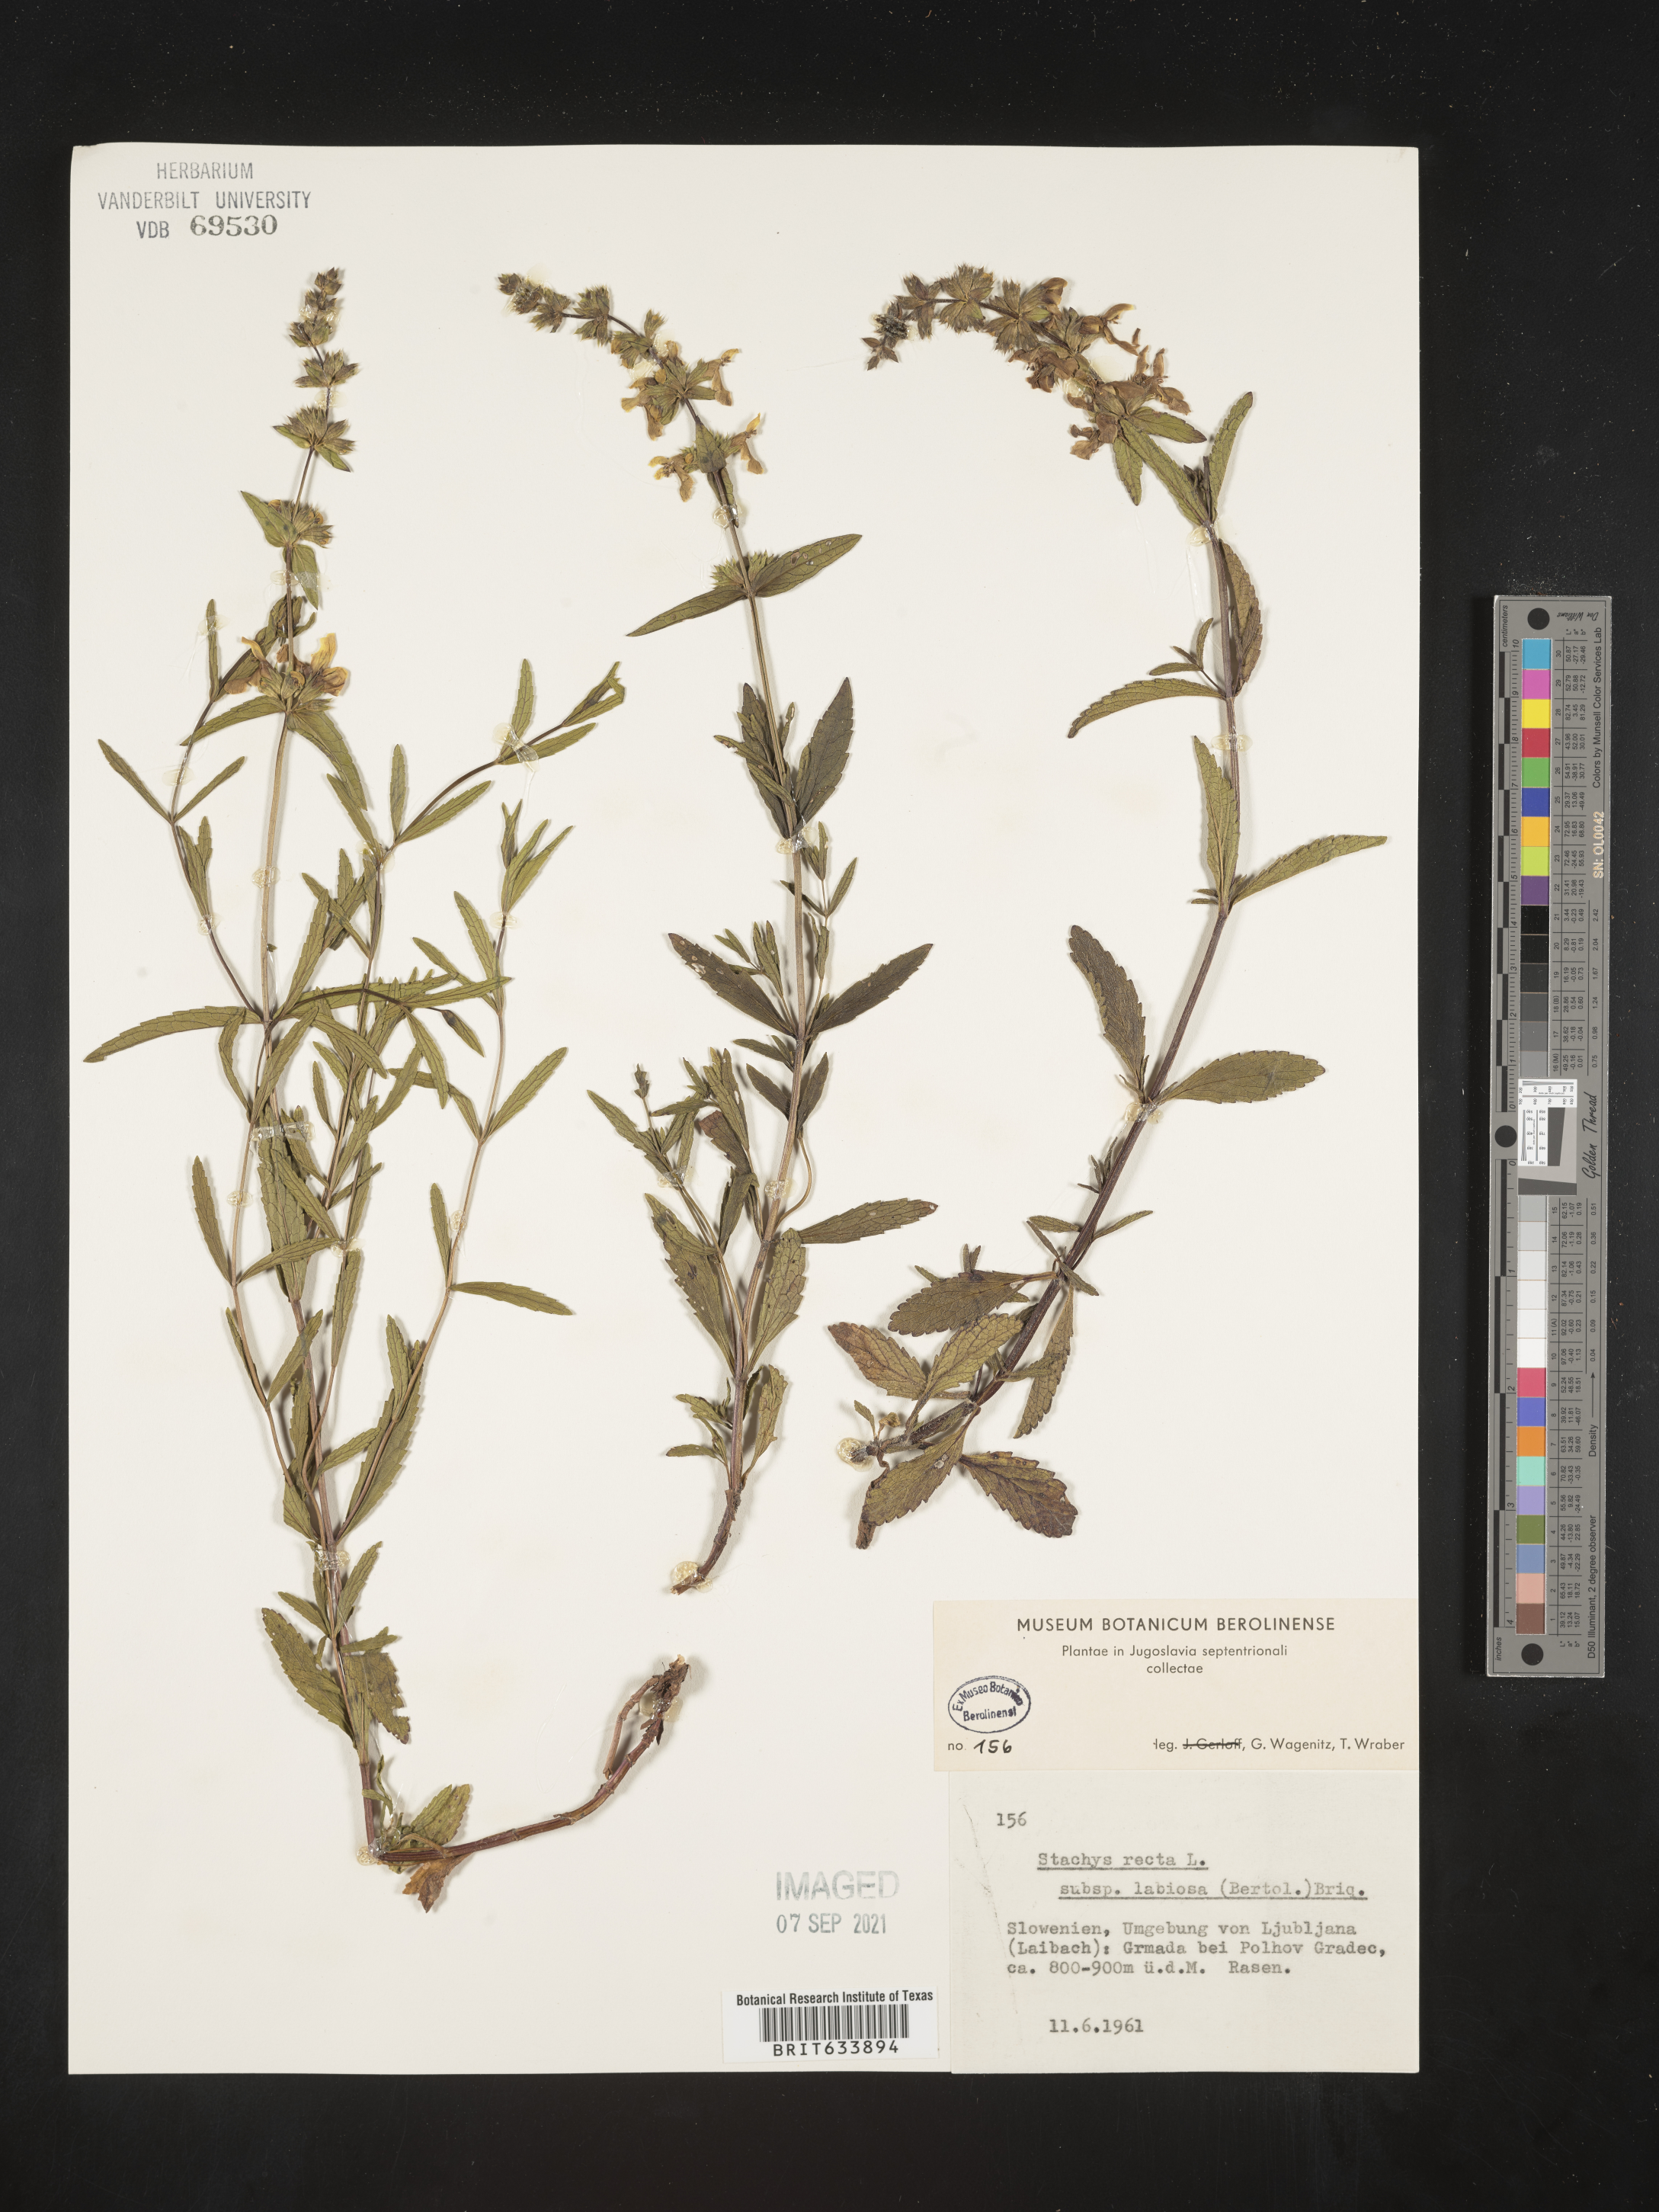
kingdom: Plantae
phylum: Tracheophyta
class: Magnoliopsida
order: Lamiales
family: Lamiaceae
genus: Stachys
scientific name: Stachys
